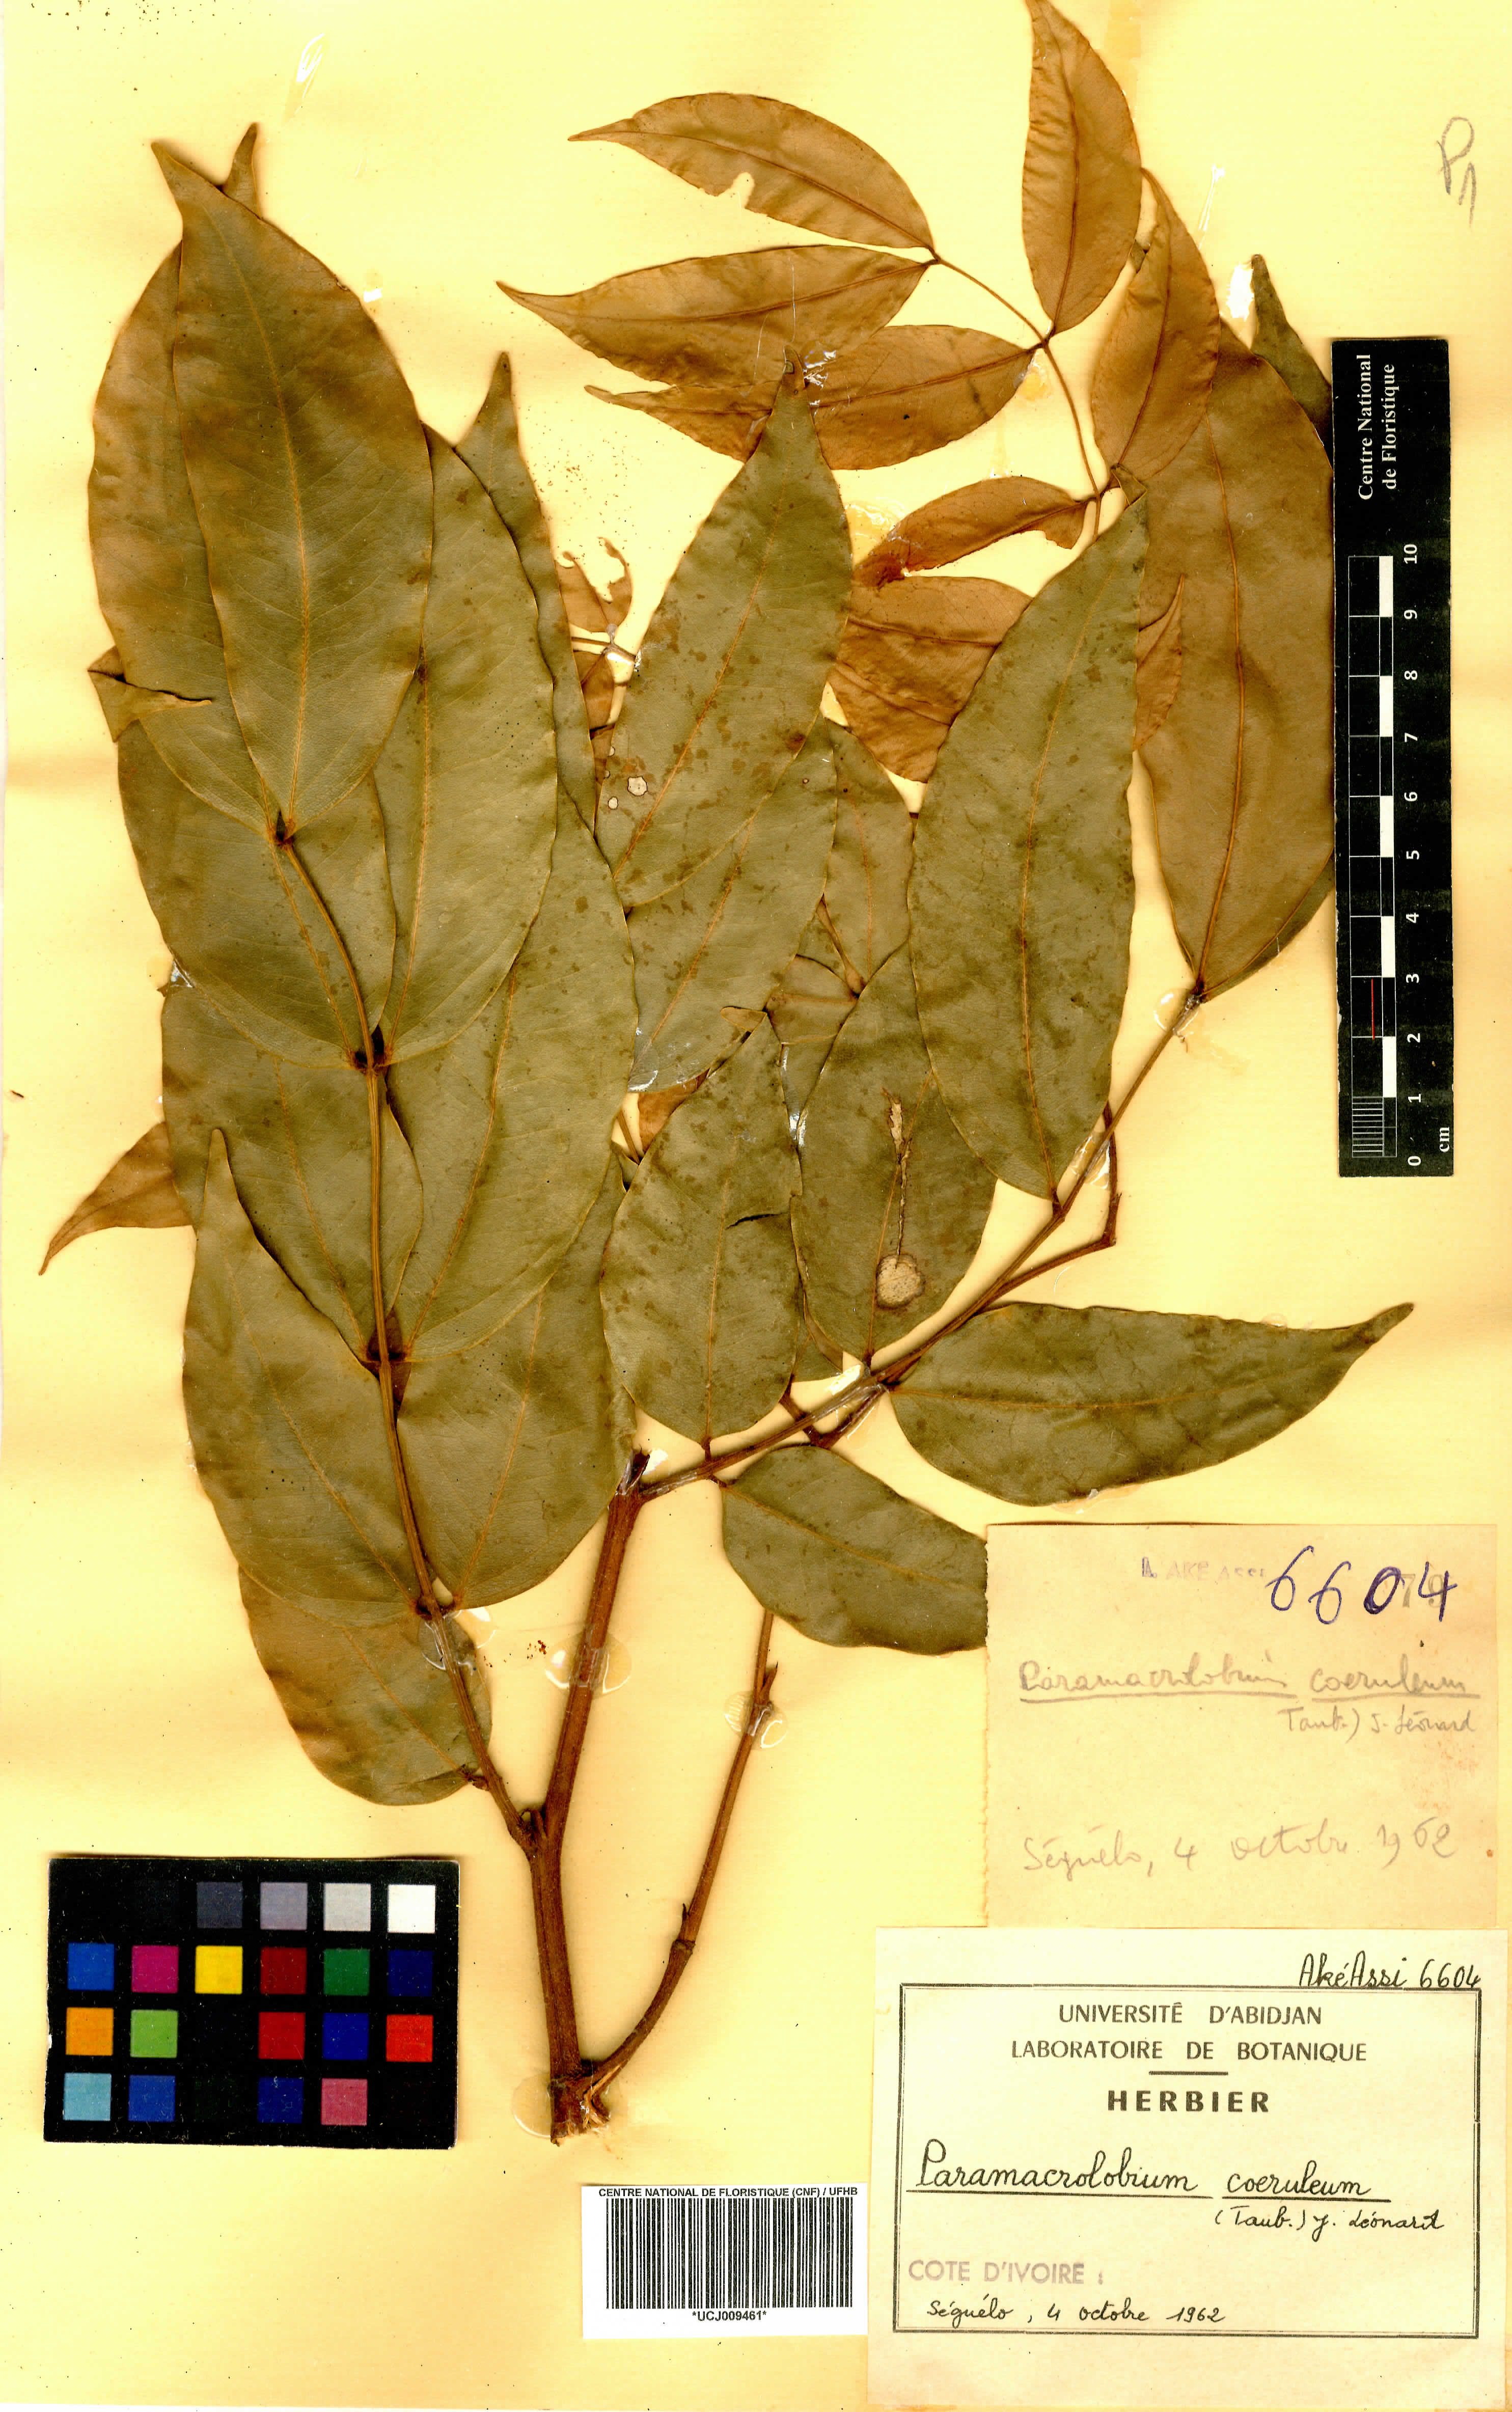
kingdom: Plantae
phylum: Tracheophyta
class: Magnoliopsida
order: Fabales
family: Fabaceae
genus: Paramacrolobium
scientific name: Paramacrolobium coeruleum
